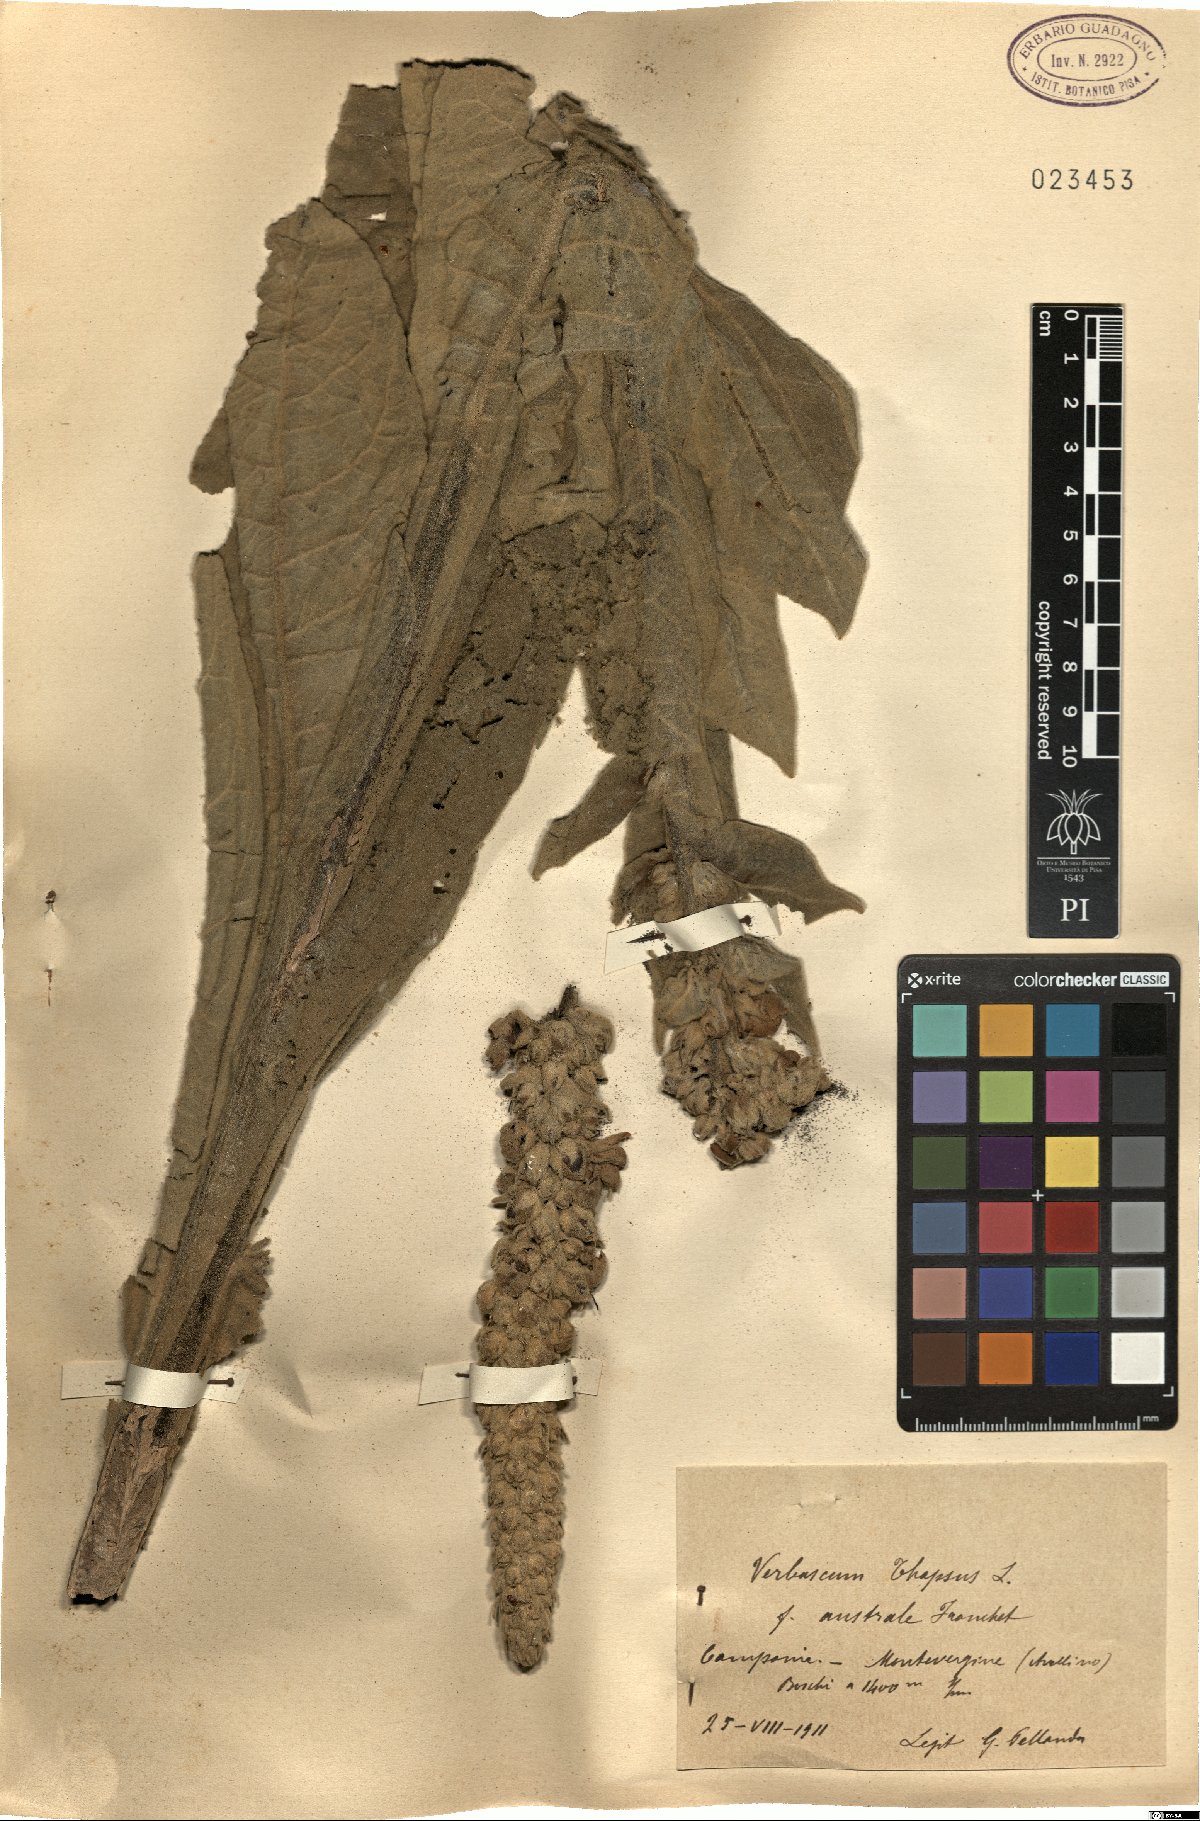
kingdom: Plantae
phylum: Tracheophyta
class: Magnoliopsida
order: Lamiales
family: Scrophulariaceae
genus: Verbascum
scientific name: Verbascum thapsus
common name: Common mullein
